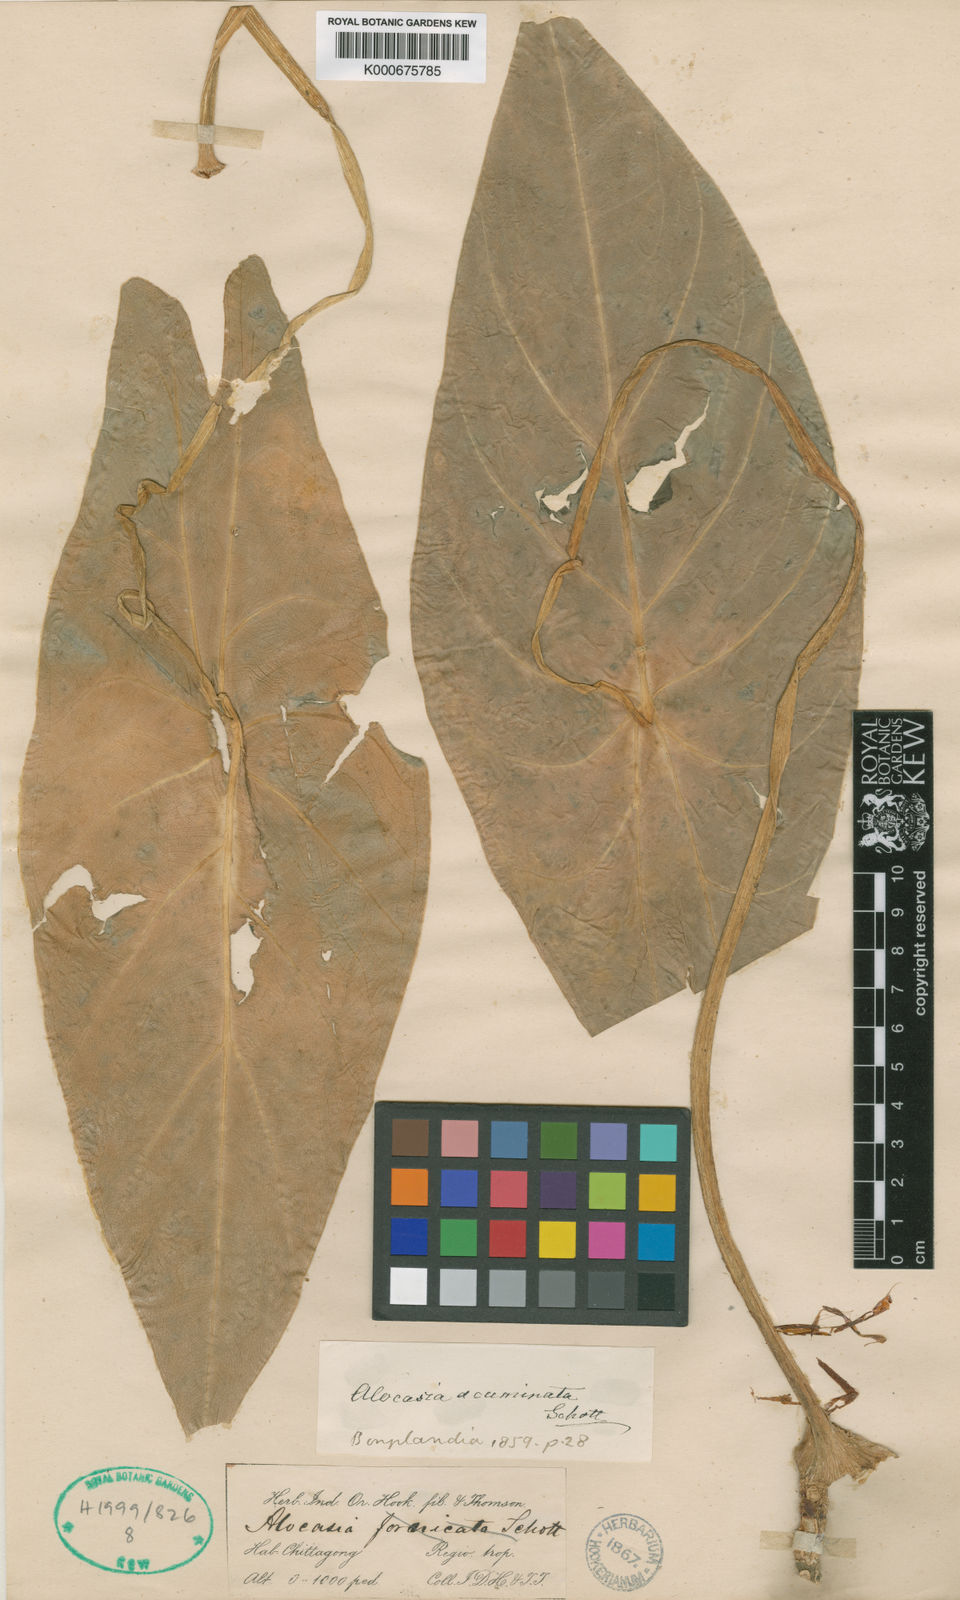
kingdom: Plantae
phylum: Tracheophyta
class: Liliopsida
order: Alismatales
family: Araceae
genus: Alocasia
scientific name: Alocasia acuminata
